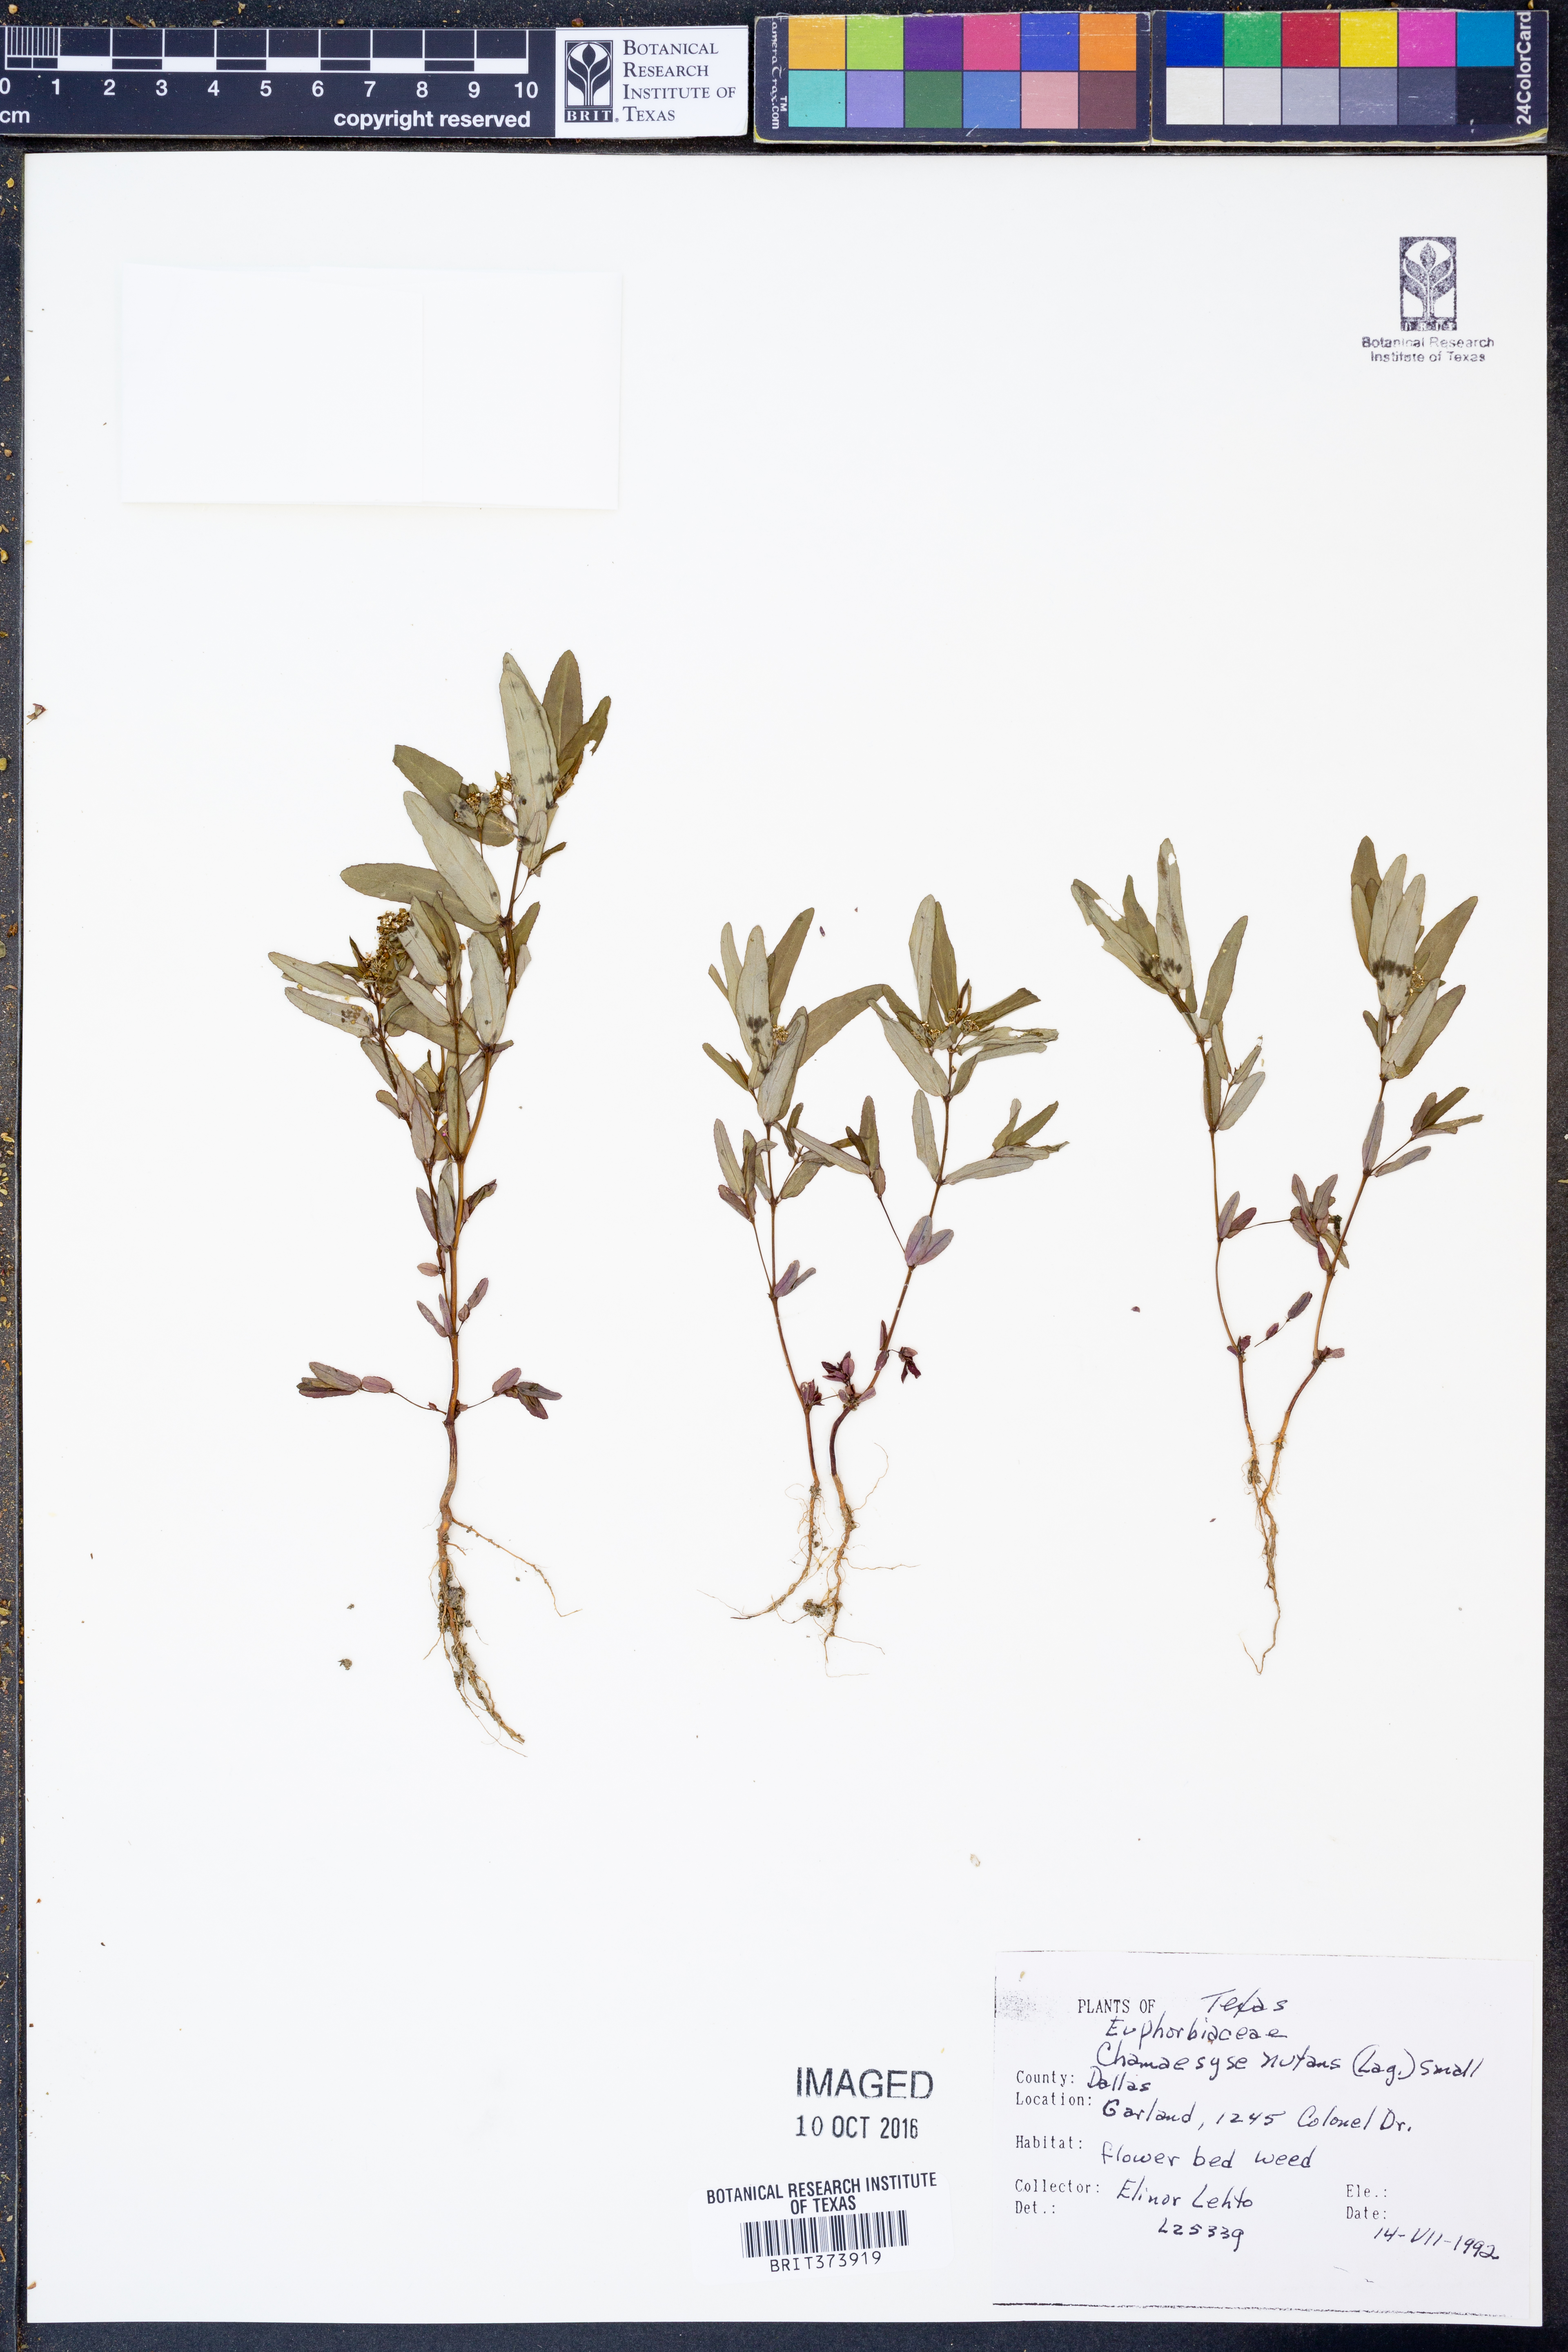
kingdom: Plantae
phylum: Tracheophyta
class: Magnoliopsida
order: Malpighiales
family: Euphorbiaceae
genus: Euphorbia
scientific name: Euphorbia nutans
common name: Eyebane
